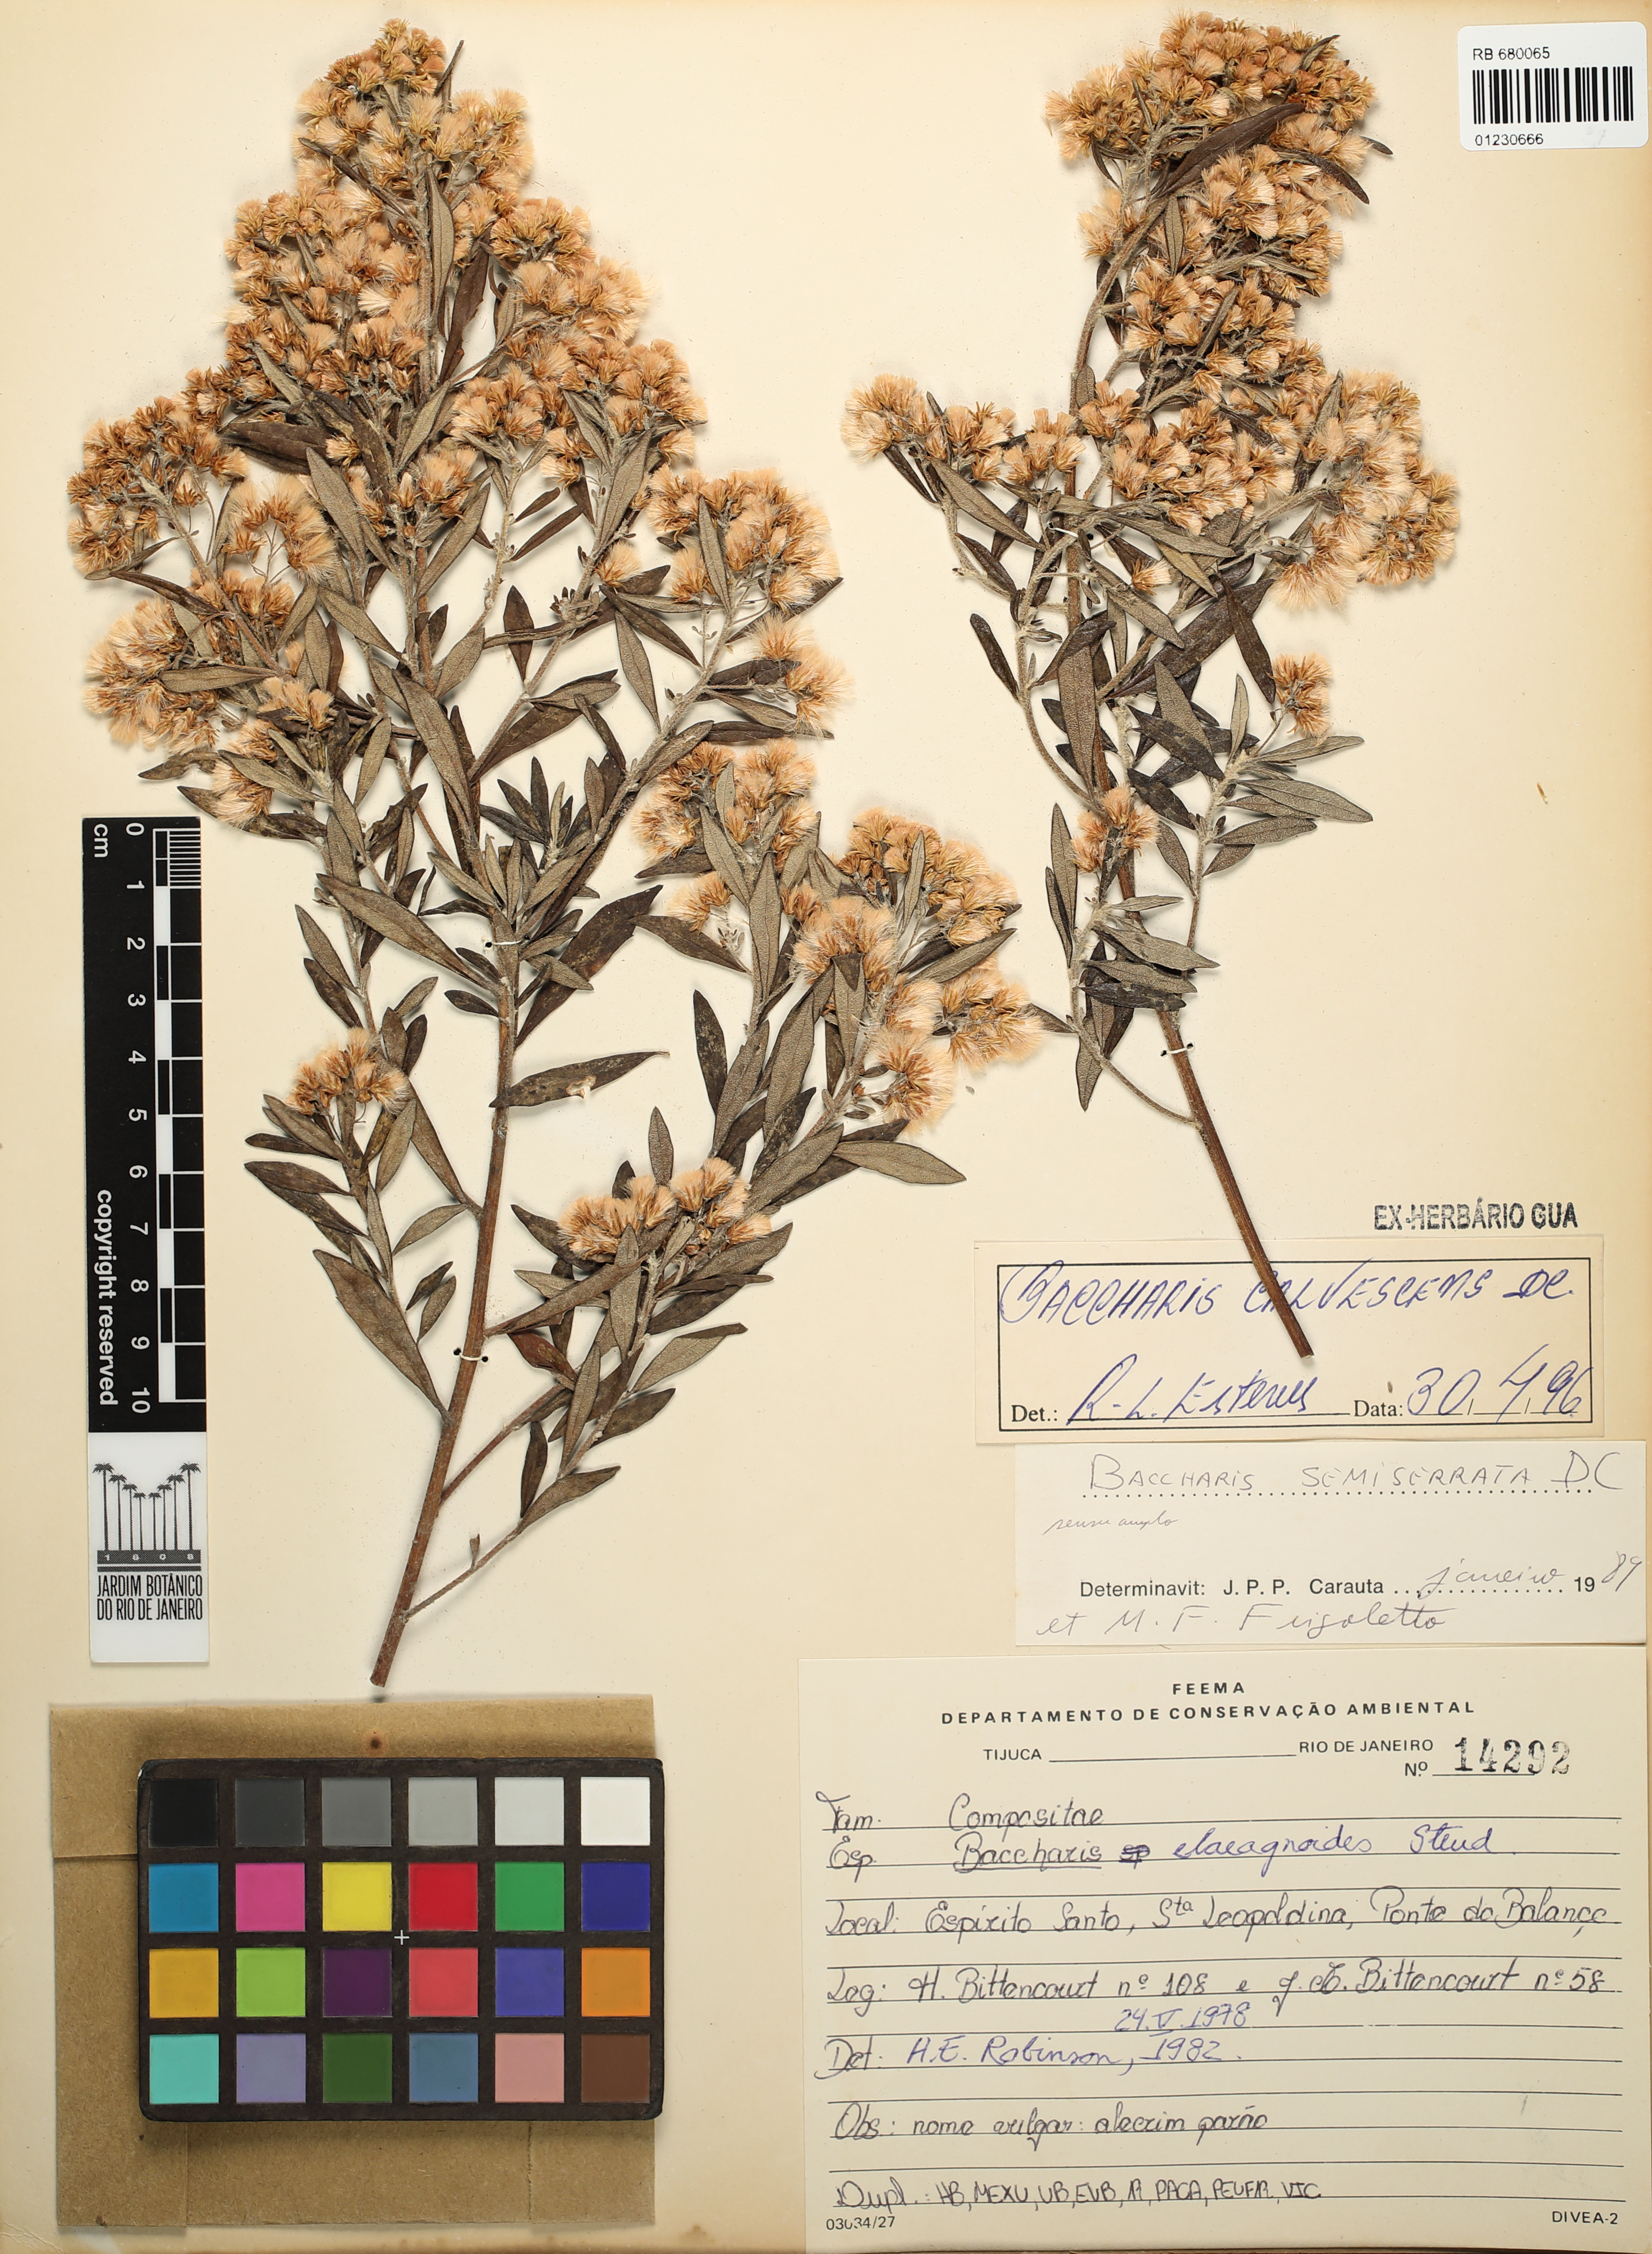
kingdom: Plantae
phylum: Tracheophyta
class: Magnoliopsida
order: Asterales
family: Asteraceae
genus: Baccharis
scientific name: Baccharis calvescens
